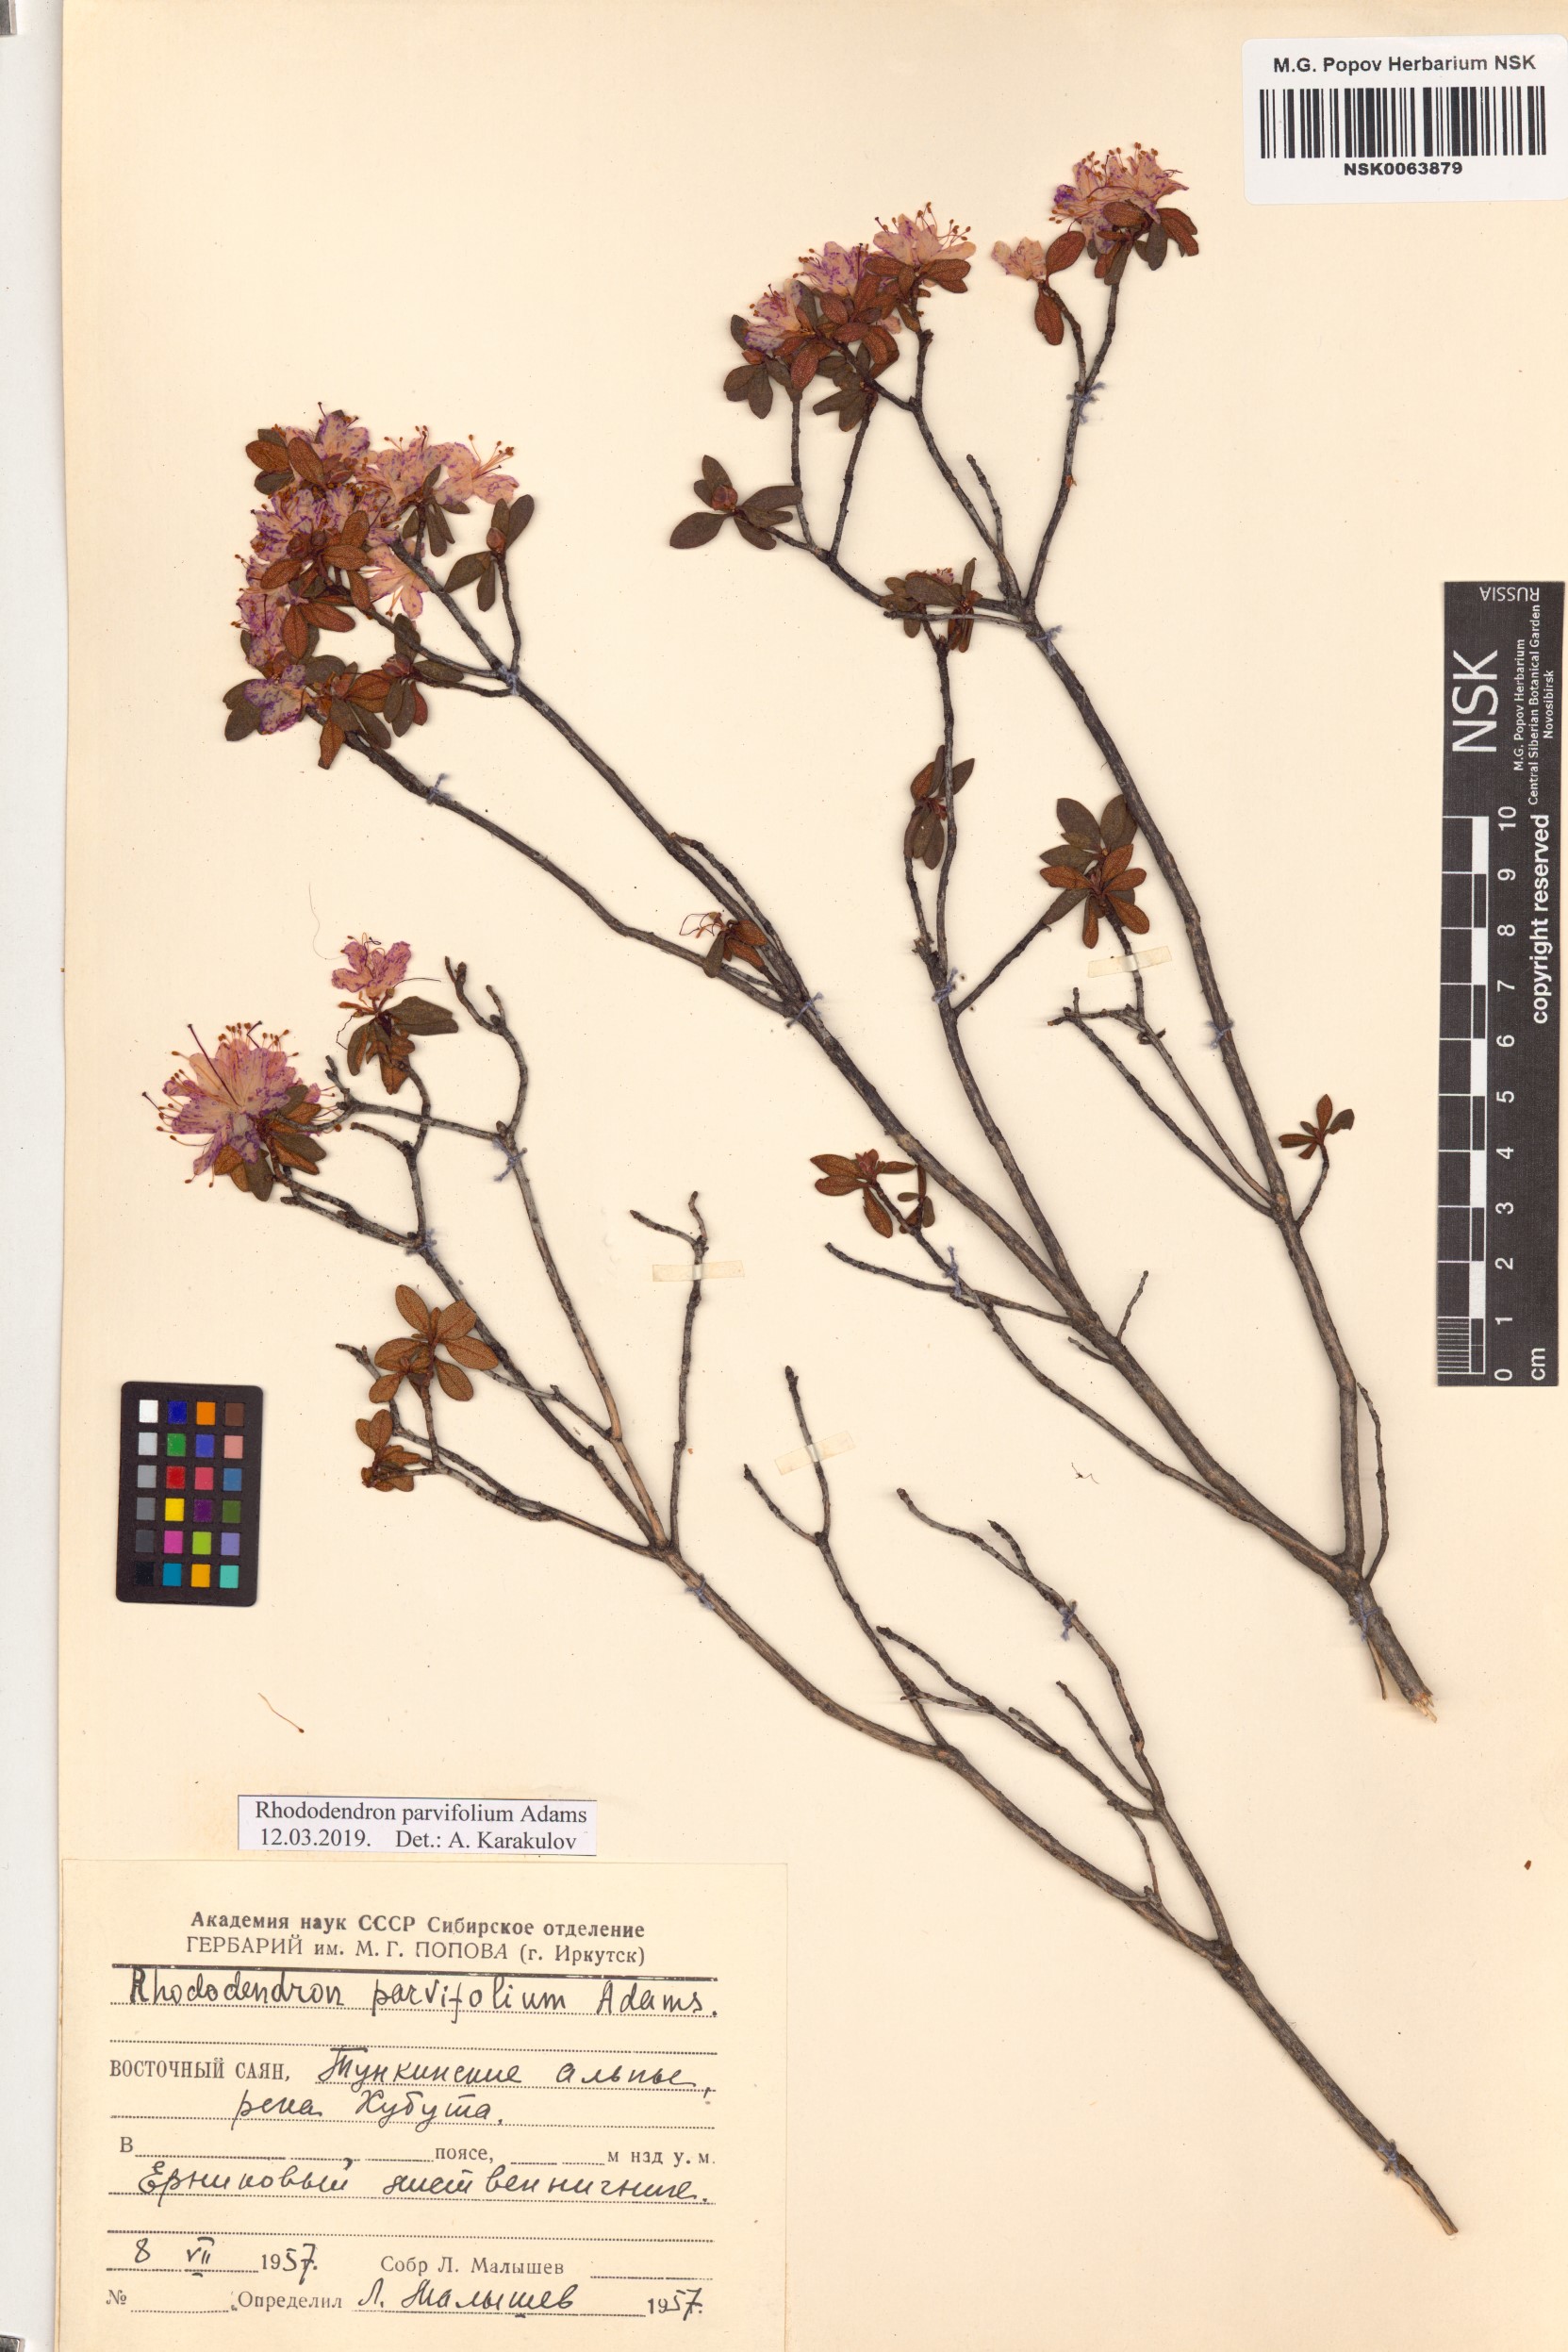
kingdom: Plantae
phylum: Tracheophyta
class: Magnoliopsida
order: Ericales
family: Ericaceae
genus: Rhododendron
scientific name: Rhododendron parvifolium
